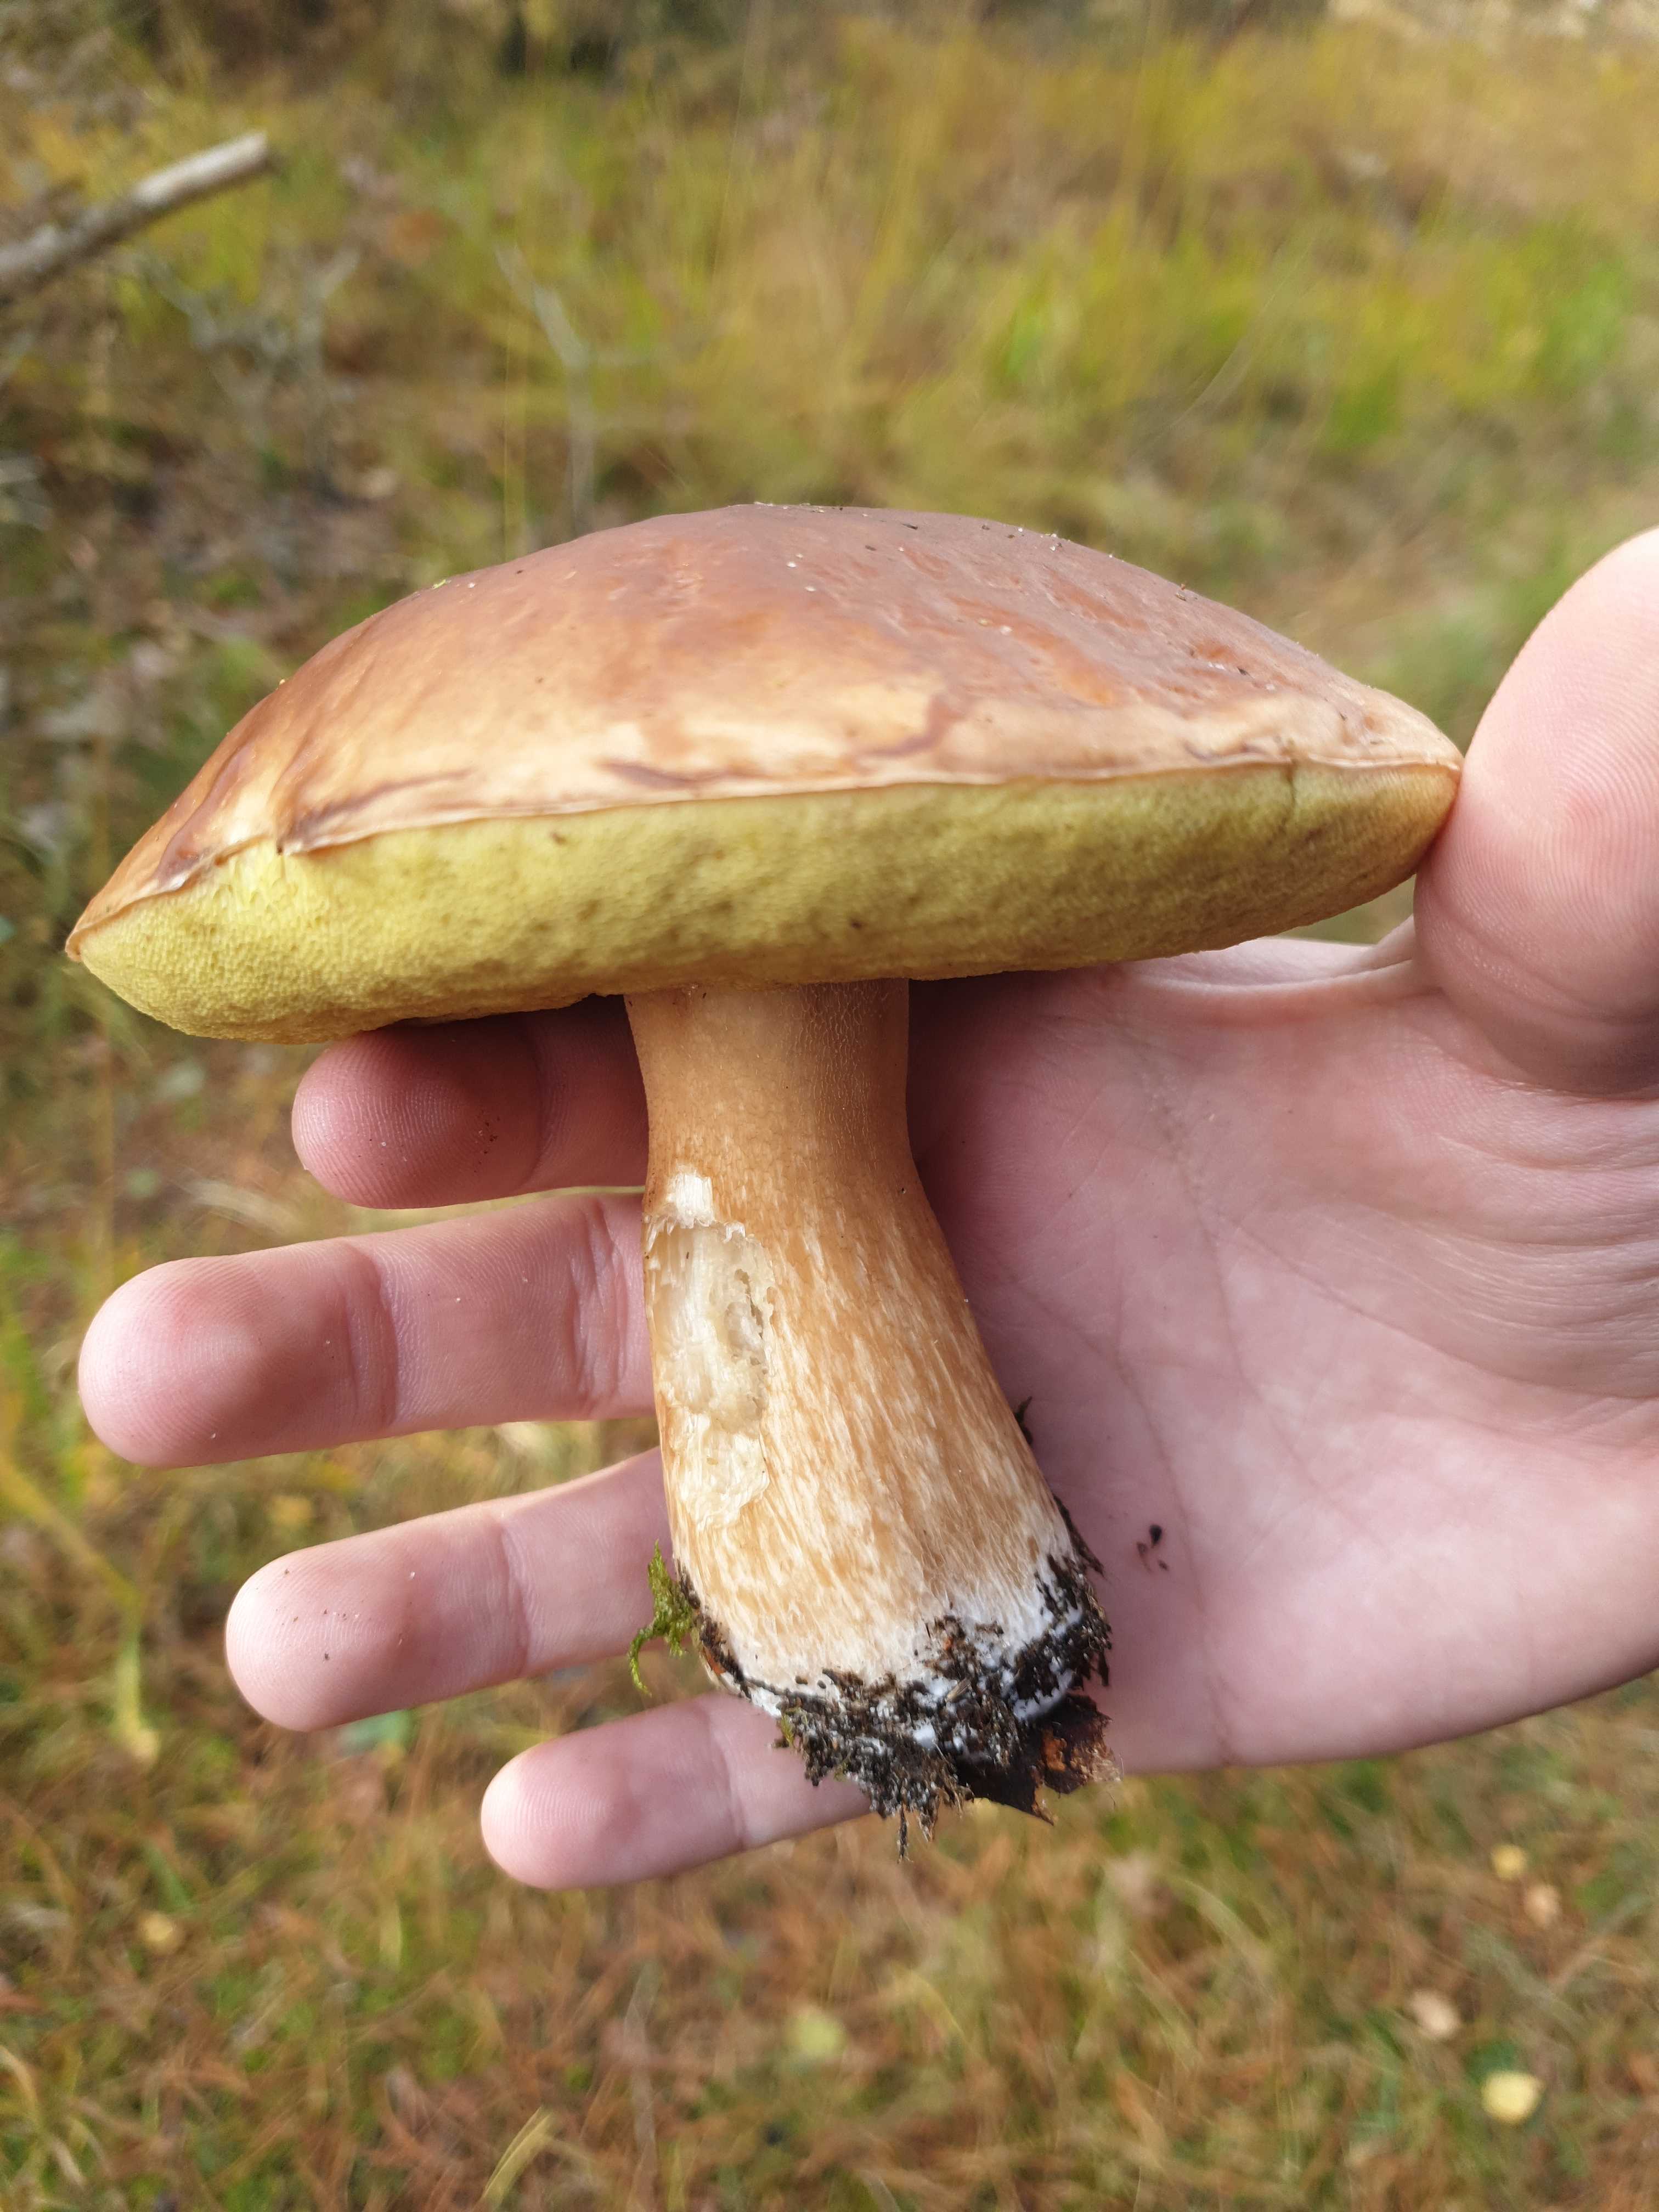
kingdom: Fungi
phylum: Basidiomycota
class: Agaricomycetes
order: Boletales
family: Boletaceae
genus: Boletus
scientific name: Boletus edulis
